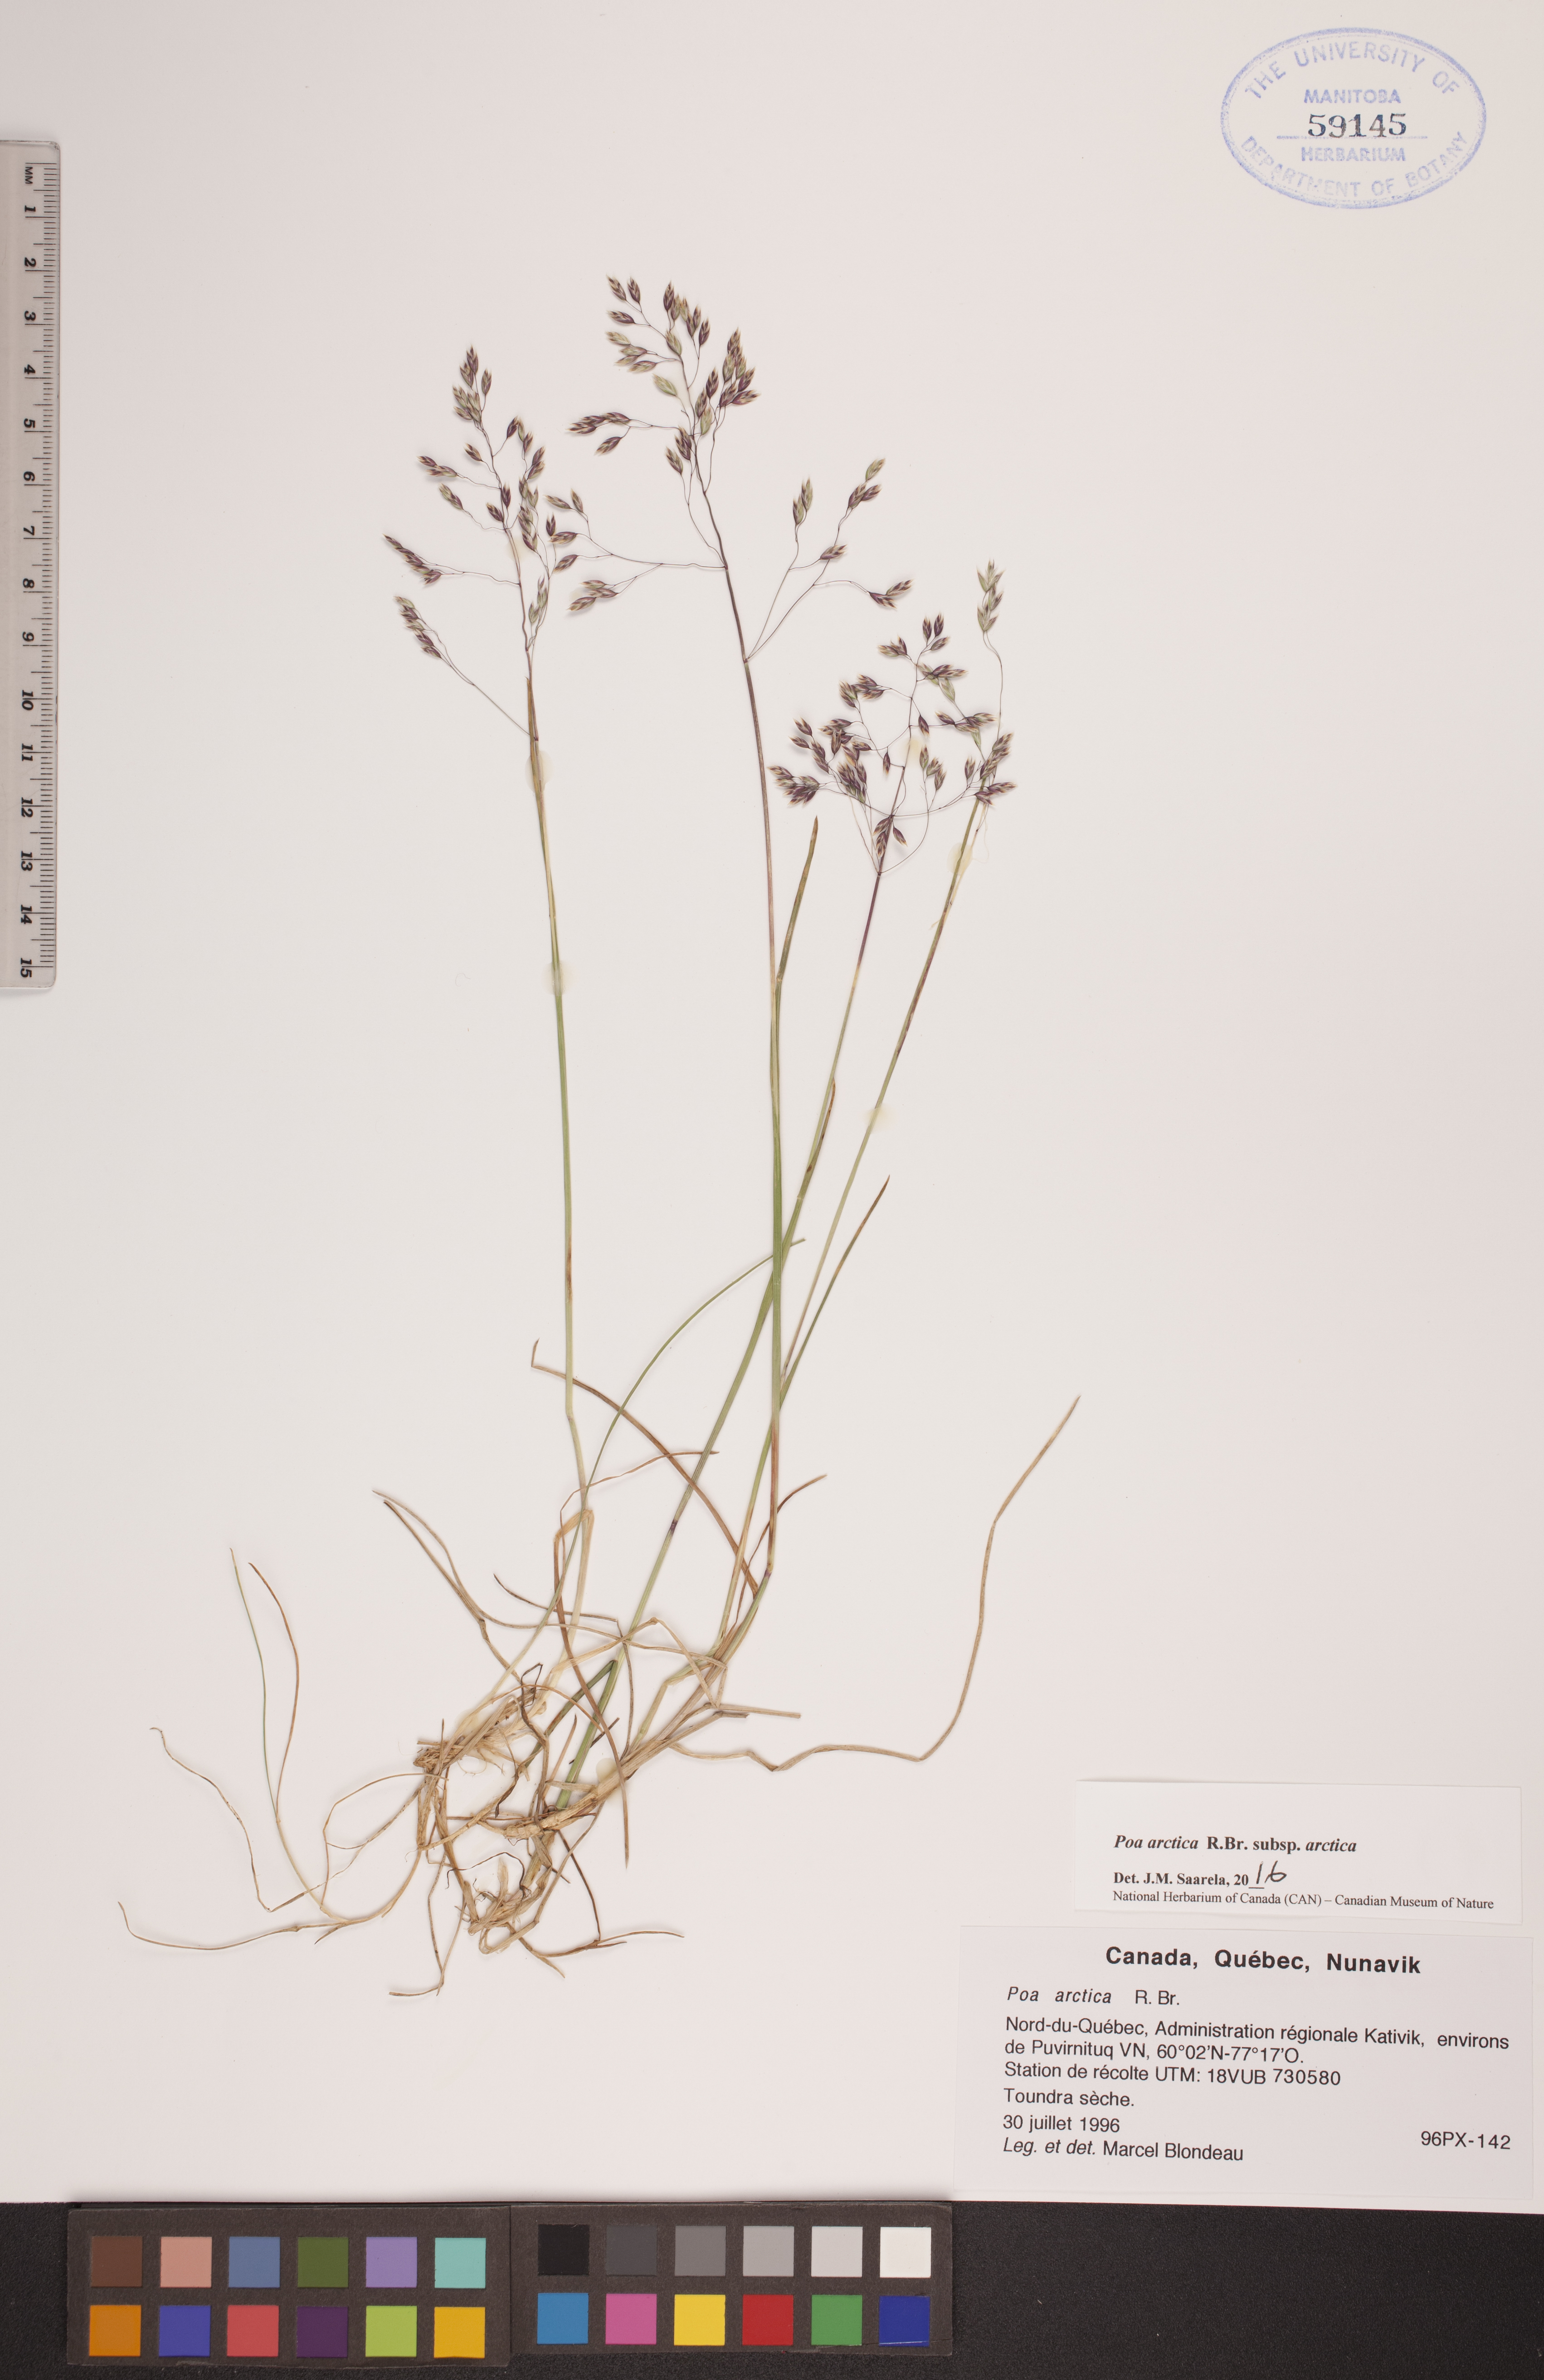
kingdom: Plantae
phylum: Tracheophyta
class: Liliopsida
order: Poales
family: Poaceae
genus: Poa
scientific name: Poa arctica
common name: Arctic bluegrass
